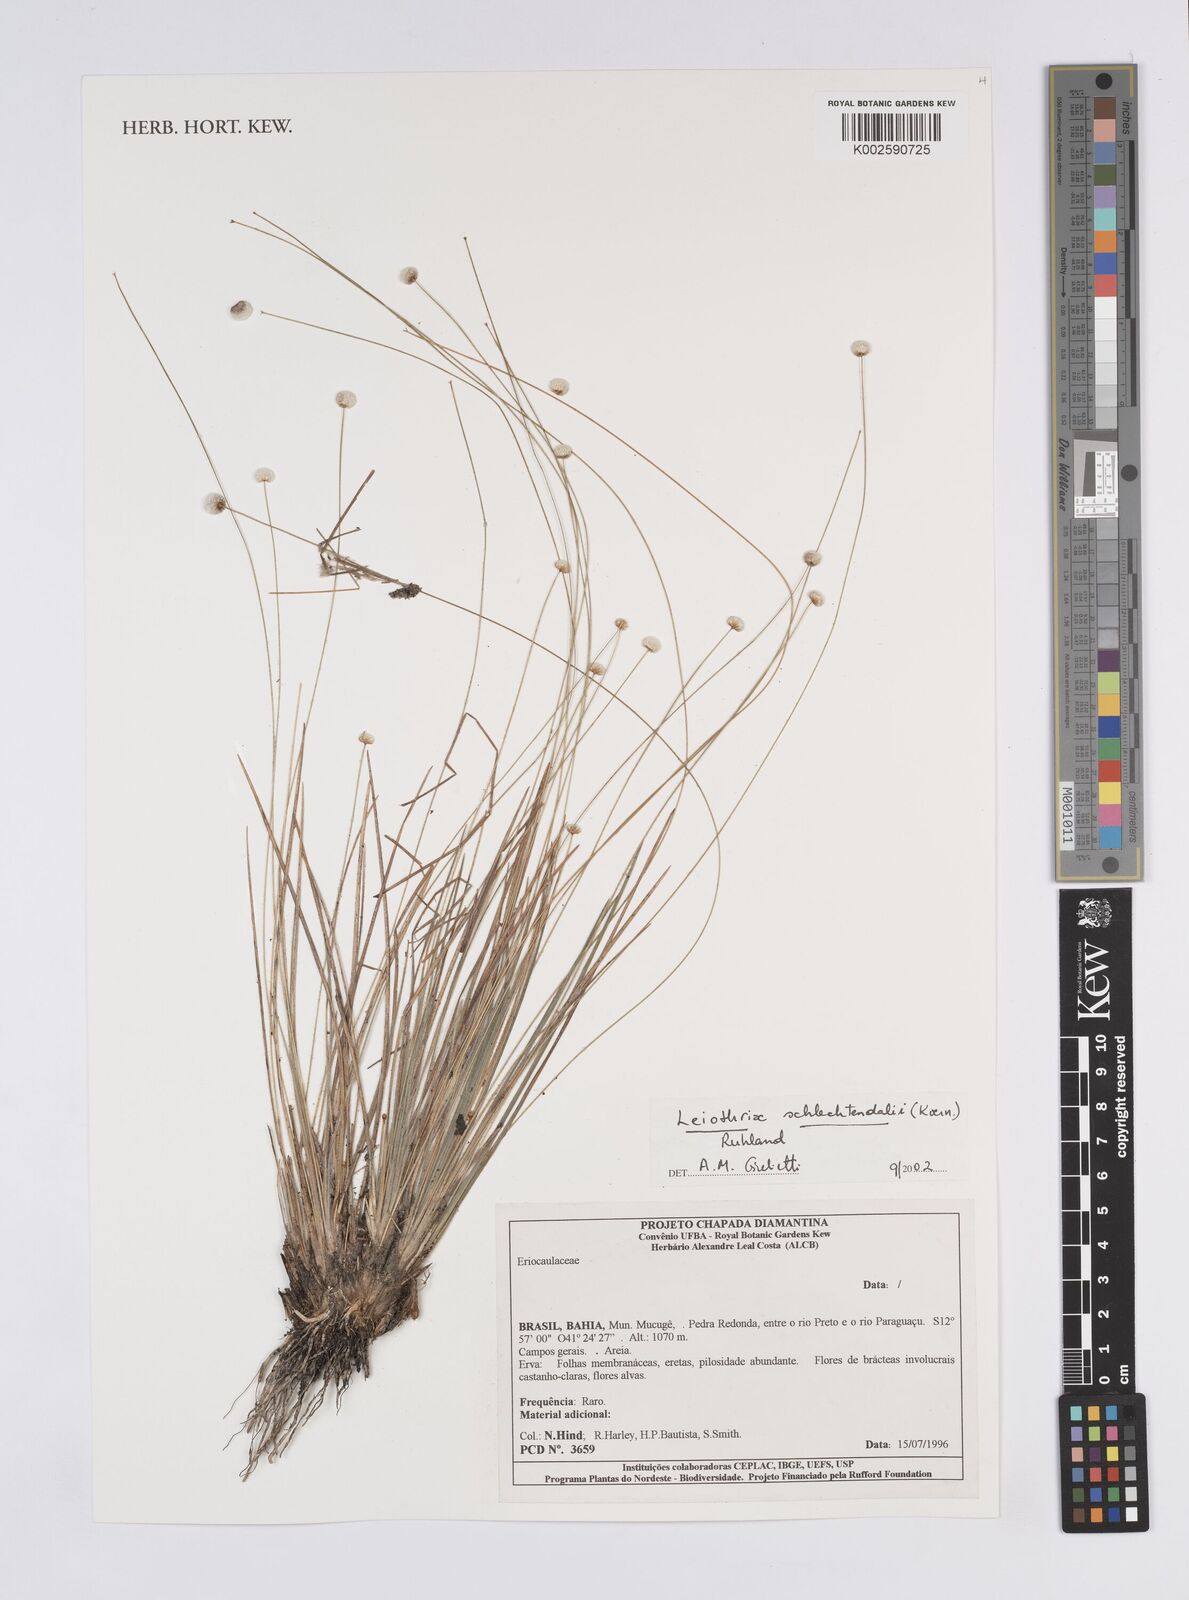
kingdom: Plantae
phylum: Tracheophyta
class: Liliopsida
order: Poales
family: Eriocaulaceae
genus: Leiothrix
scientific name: Leiothrix schlechtendalii
